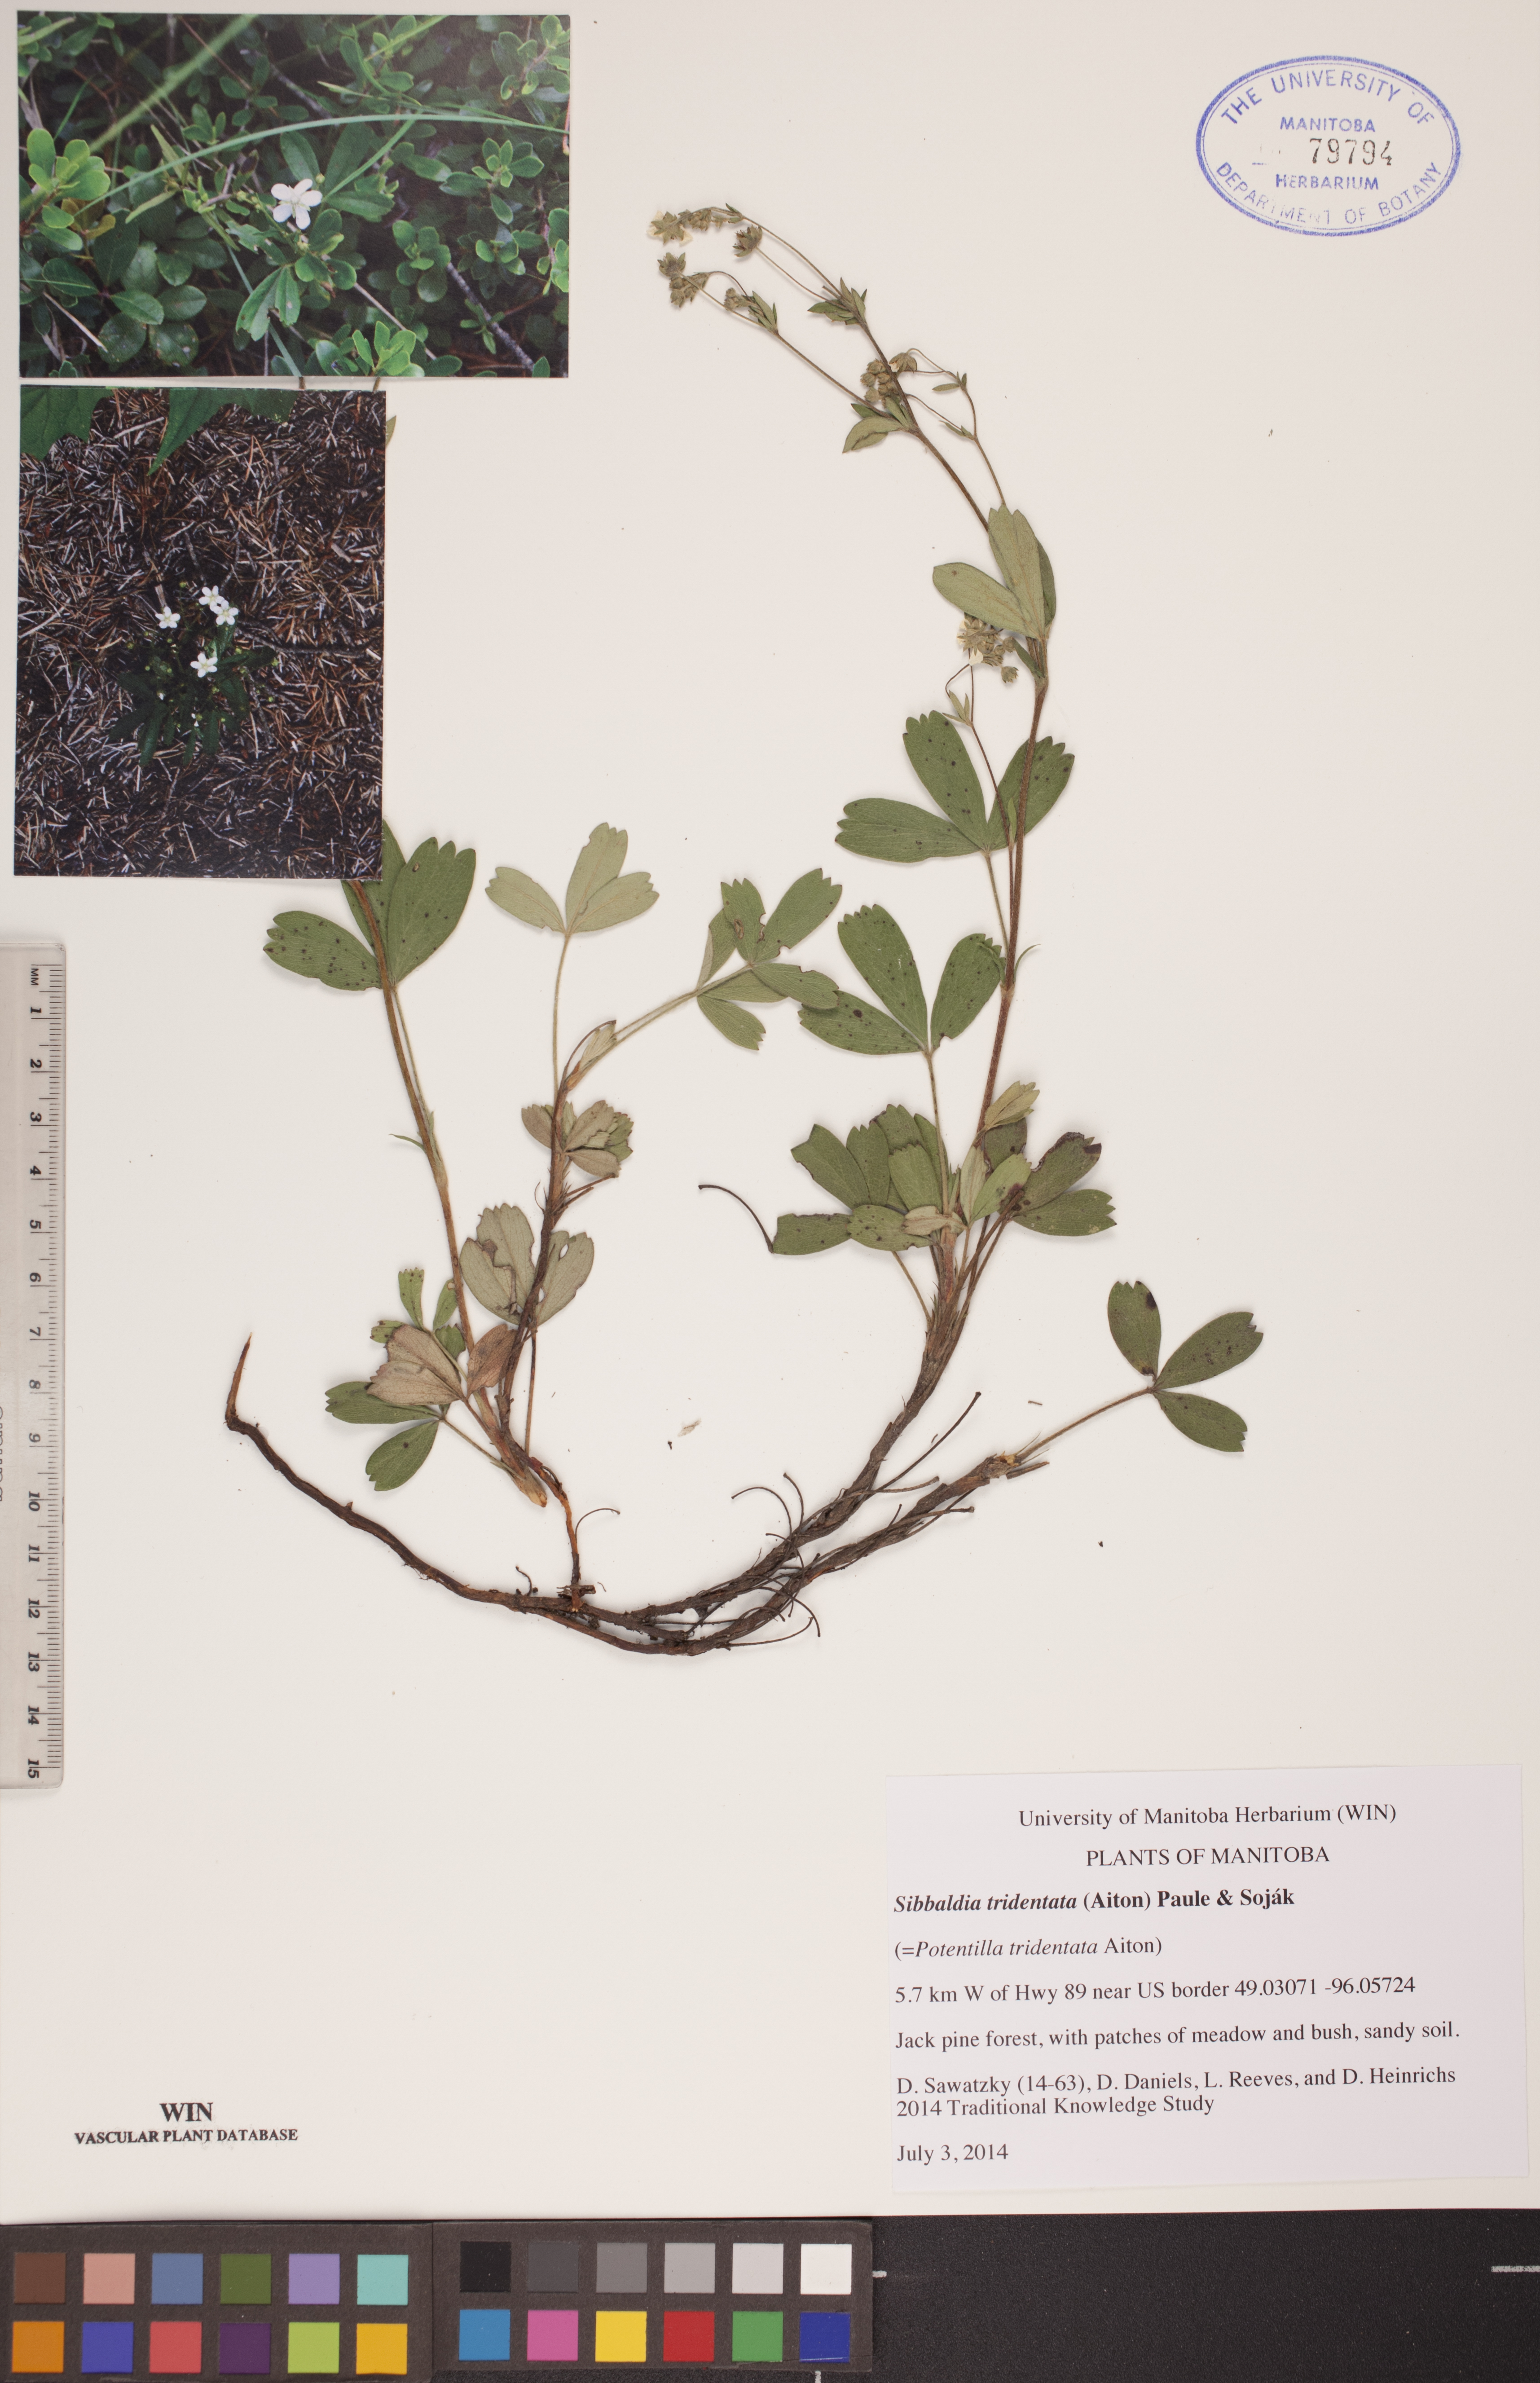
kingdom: Plantae
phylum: Tracheophyta
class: Magnoliopsida
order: Rosales
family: Rosaceae
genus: Sibbaldia
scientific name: Sibbaldia tridentata
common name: Three-toothed cinquefoil
